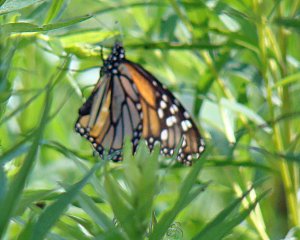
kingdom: Animalia
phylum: Arthropoda
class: Insecta
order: Lepidoptera
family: Nymphalidae
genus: Danaus
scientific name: Danaus plexippus
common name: Monarch
